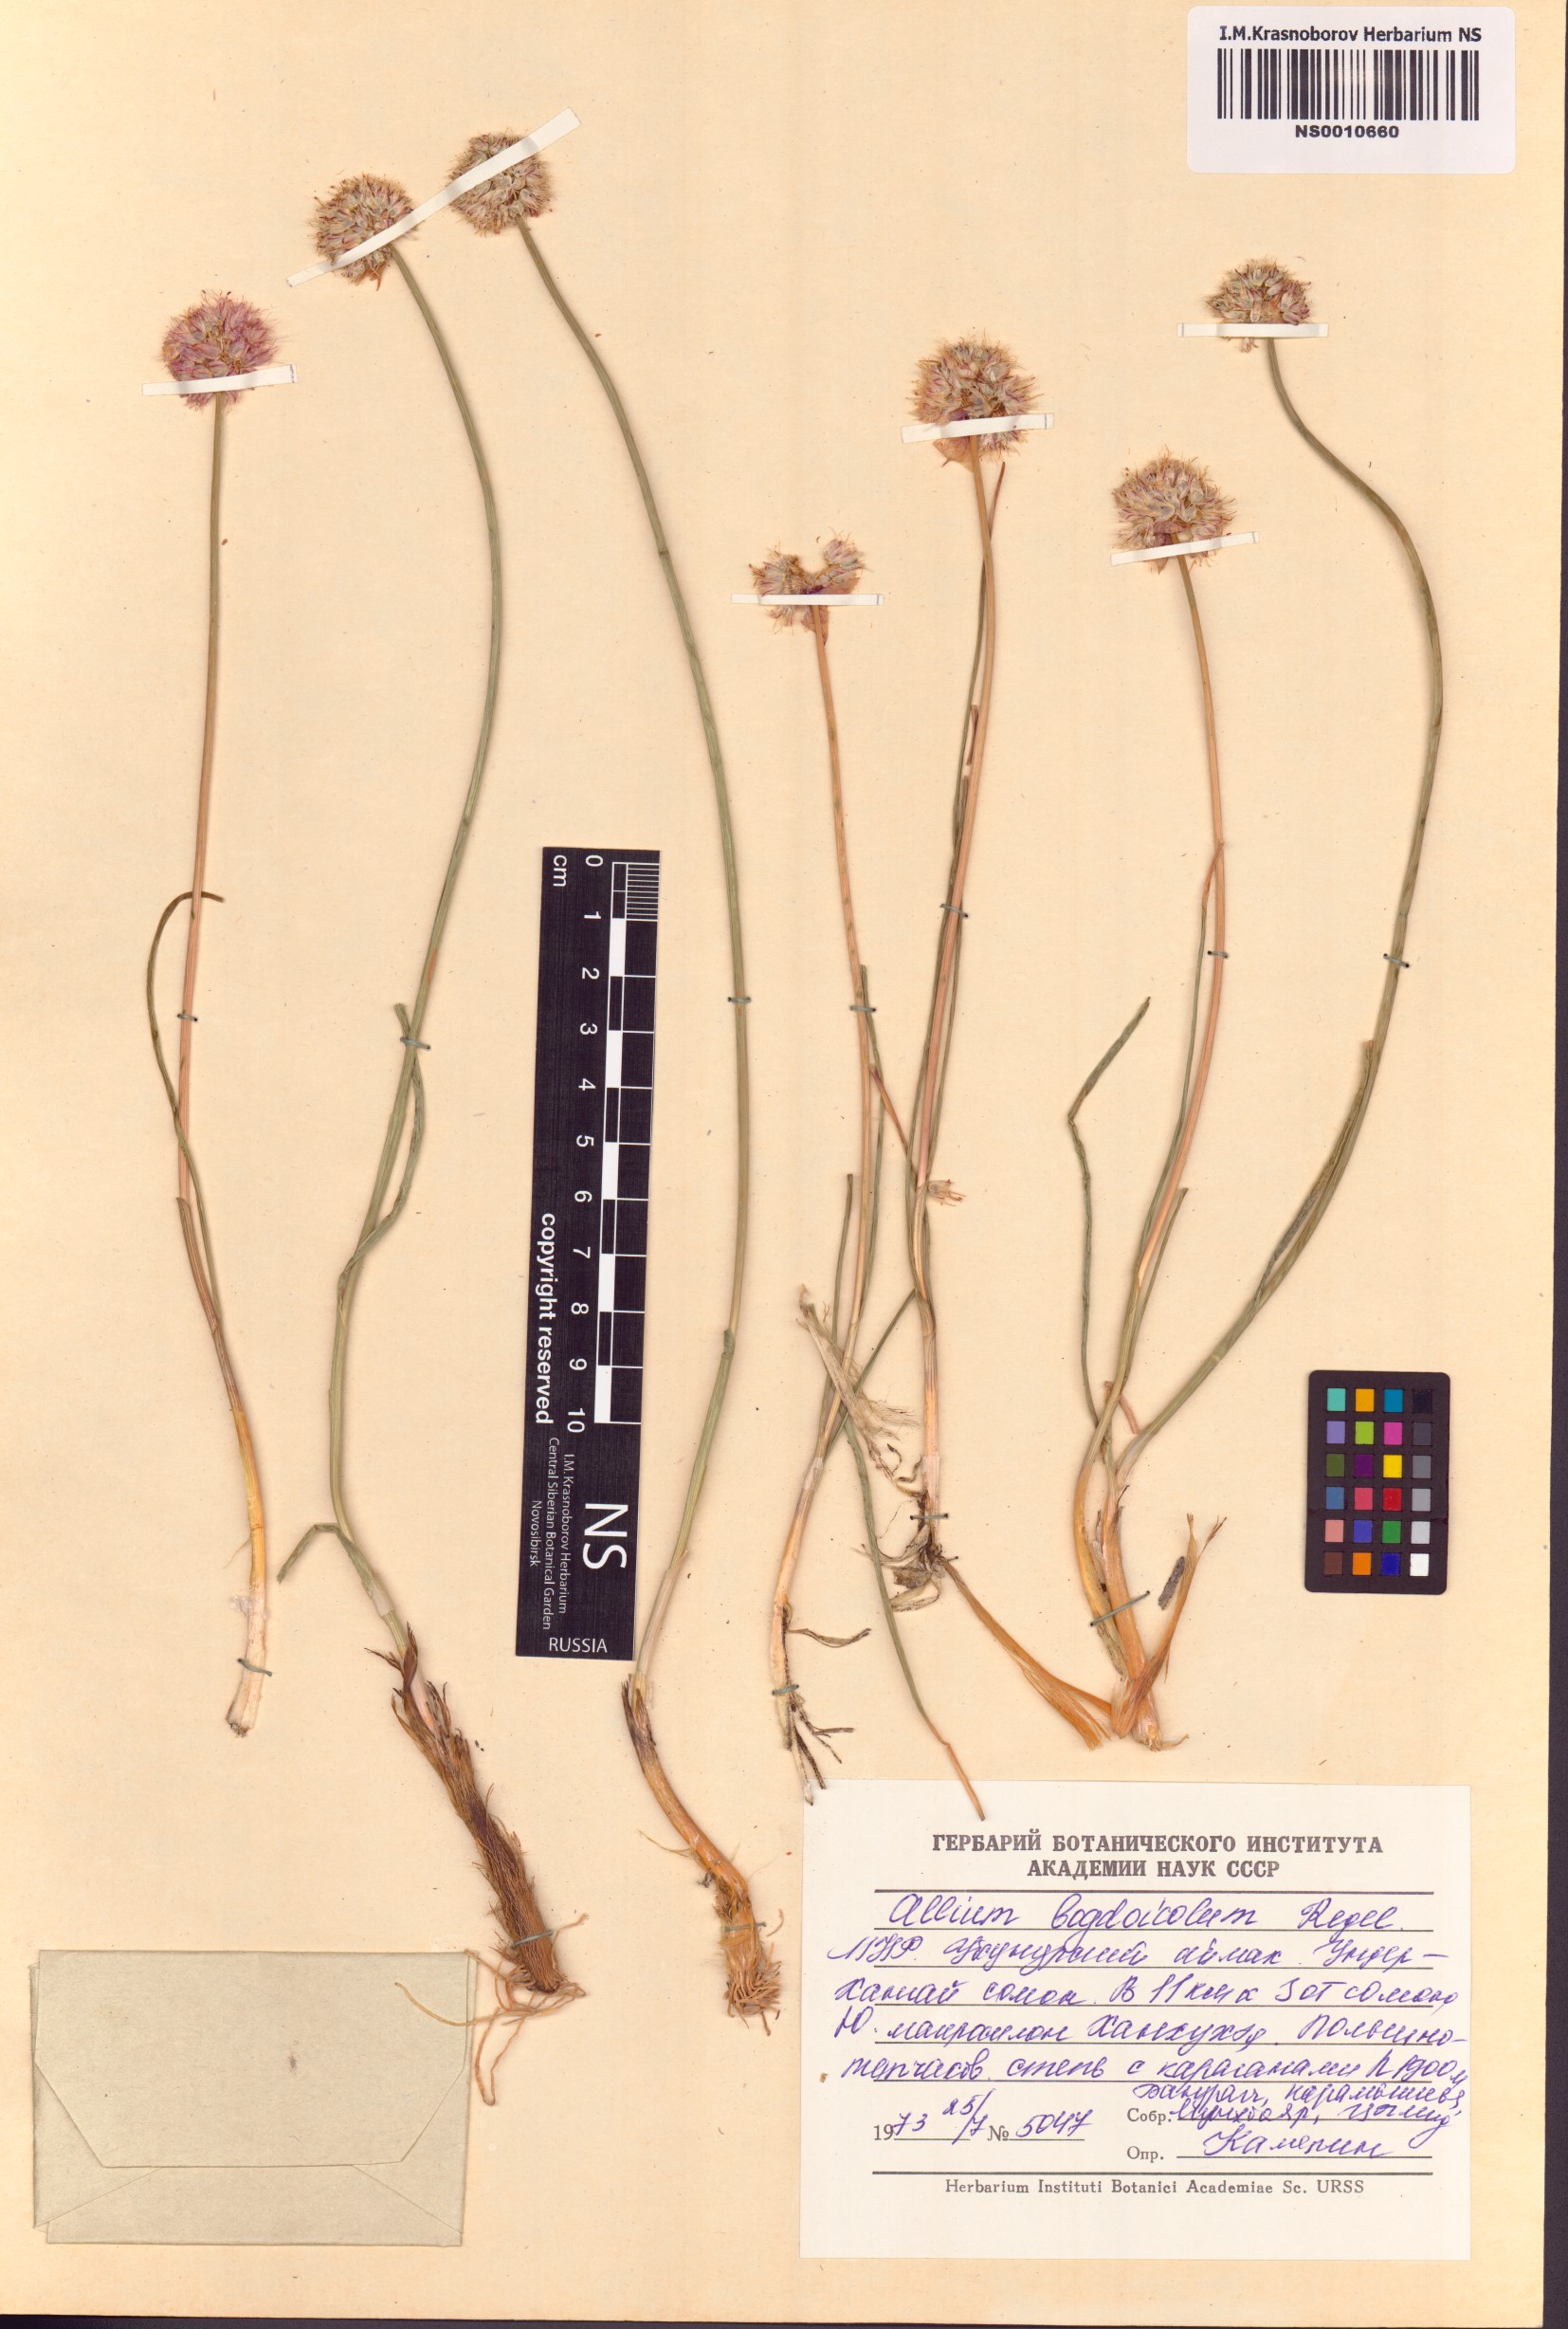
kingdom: Plantae
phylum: Tracheophyta
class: Liliopsida
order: Asparagales
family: Amaryllidaceae
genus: Allium
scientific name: Allium schrenkii
